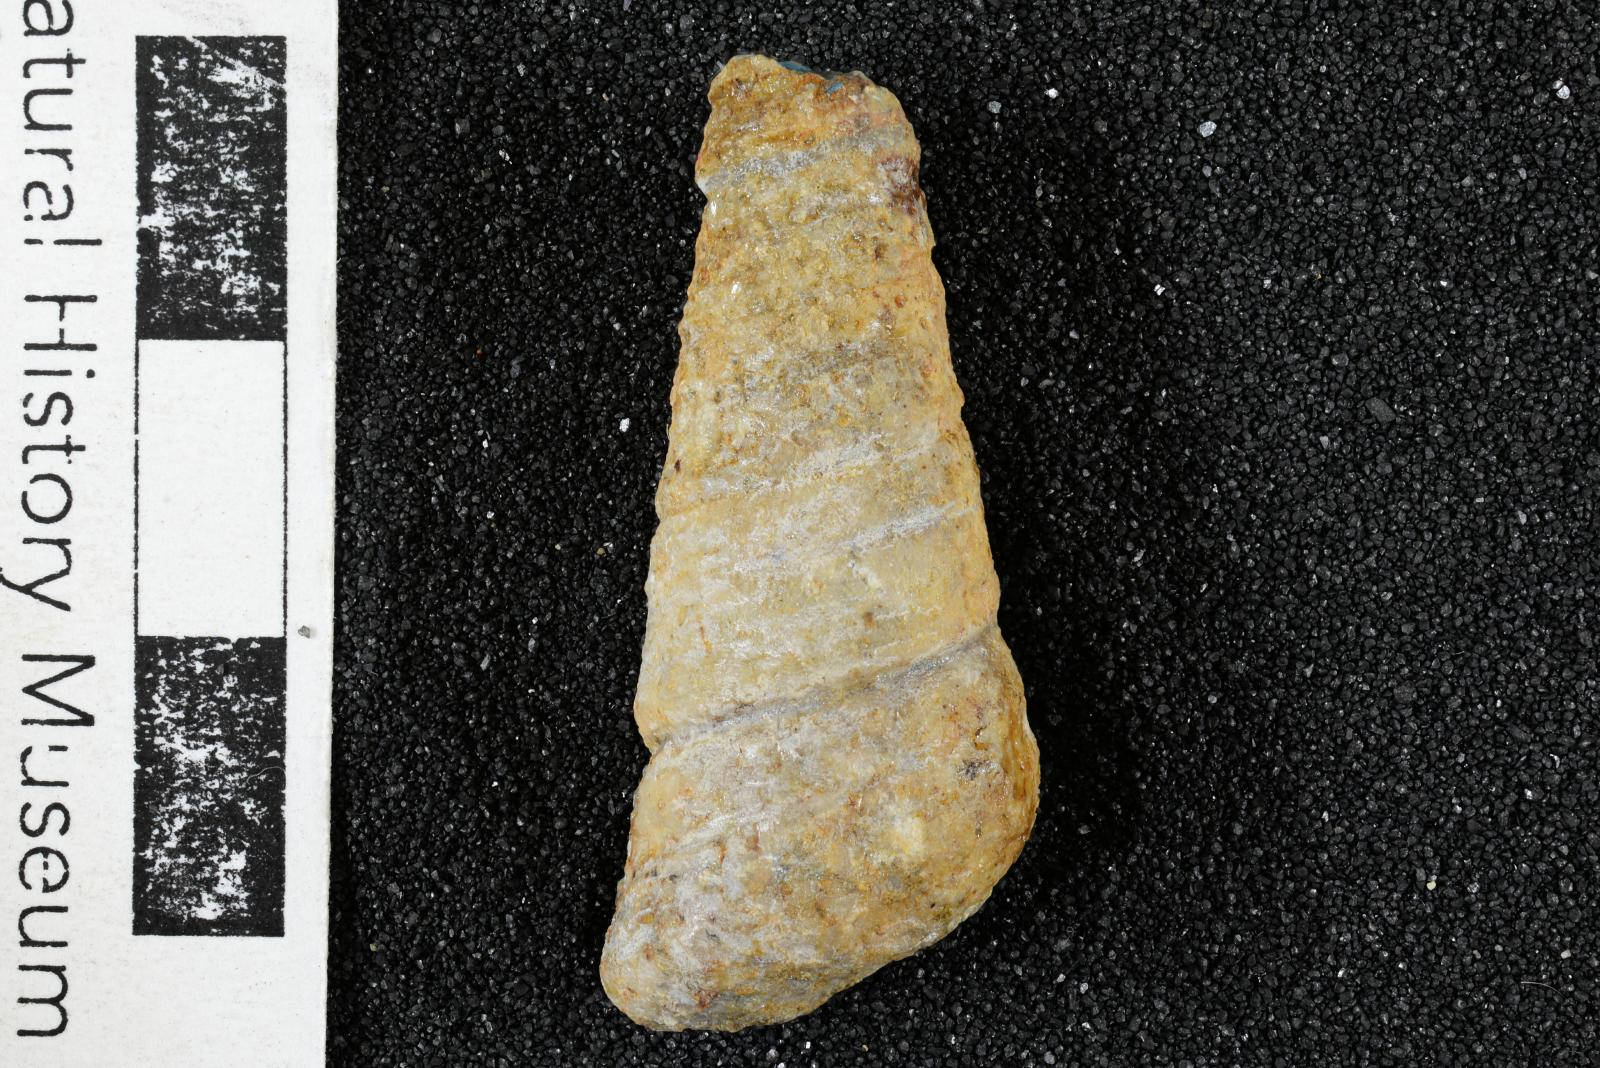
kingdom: Animalia
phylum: Mollusca
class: Gastropoda
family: Turritellidae
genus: Turritella
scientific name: Turritella peninsularis
